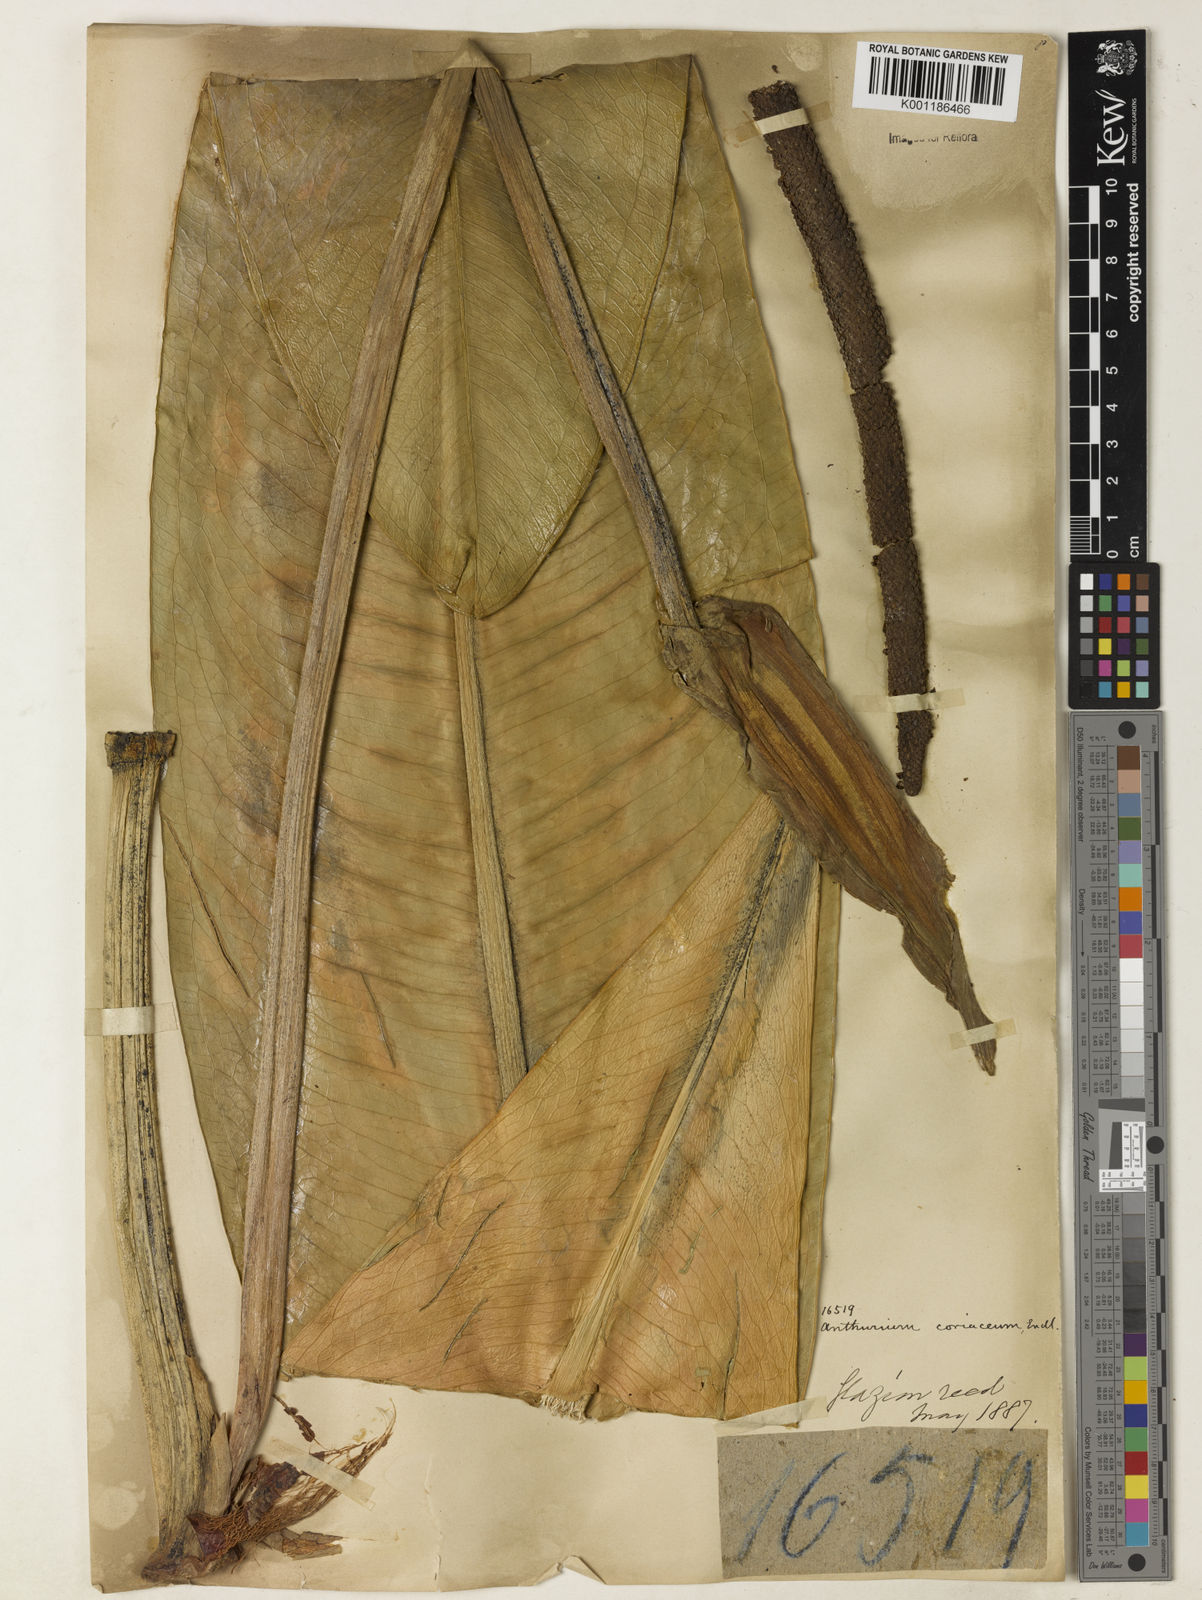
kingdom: Plantae
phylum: Tracheophyta
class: Liliopsida
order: Alismatales
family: Araceae
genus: Anthurium
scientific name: Anthurium coriaceum
